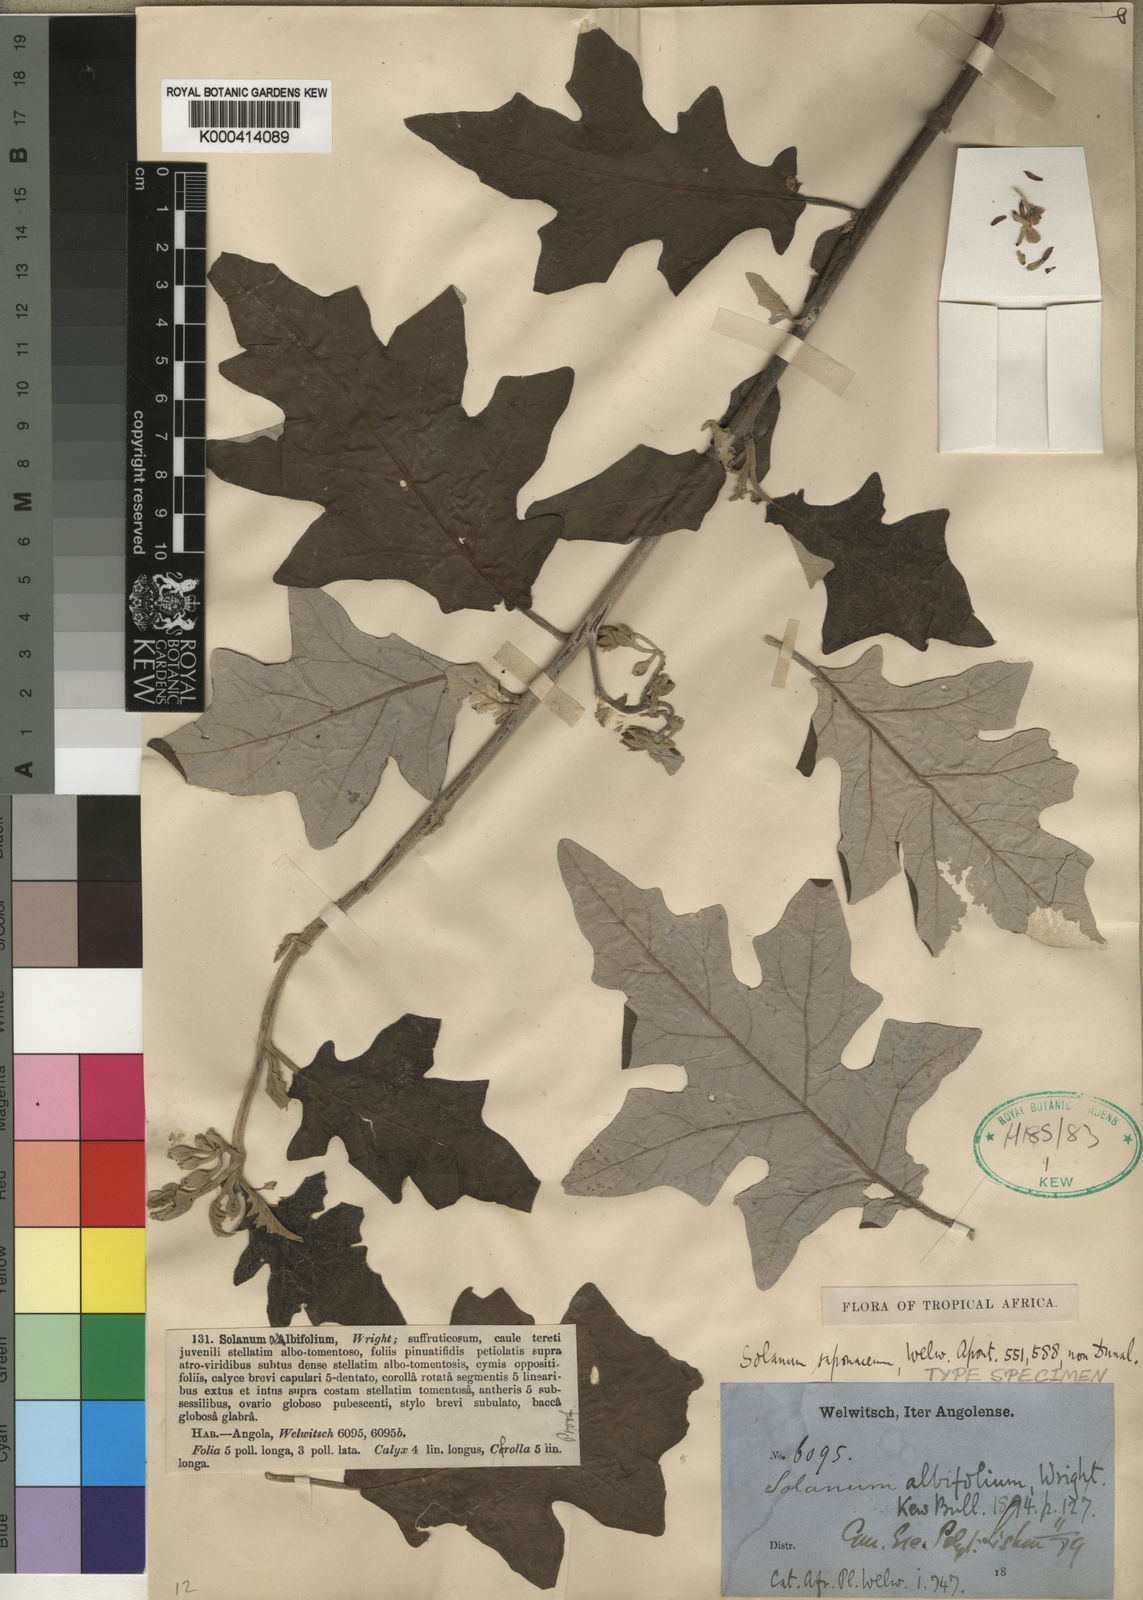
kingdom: Plantae
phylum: Tracheophyta
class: Magnoliopsida
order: Solanales
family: Solanaceae
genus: Solanum
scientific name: Solanum aculeastrum
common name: Goat bitter-apple
